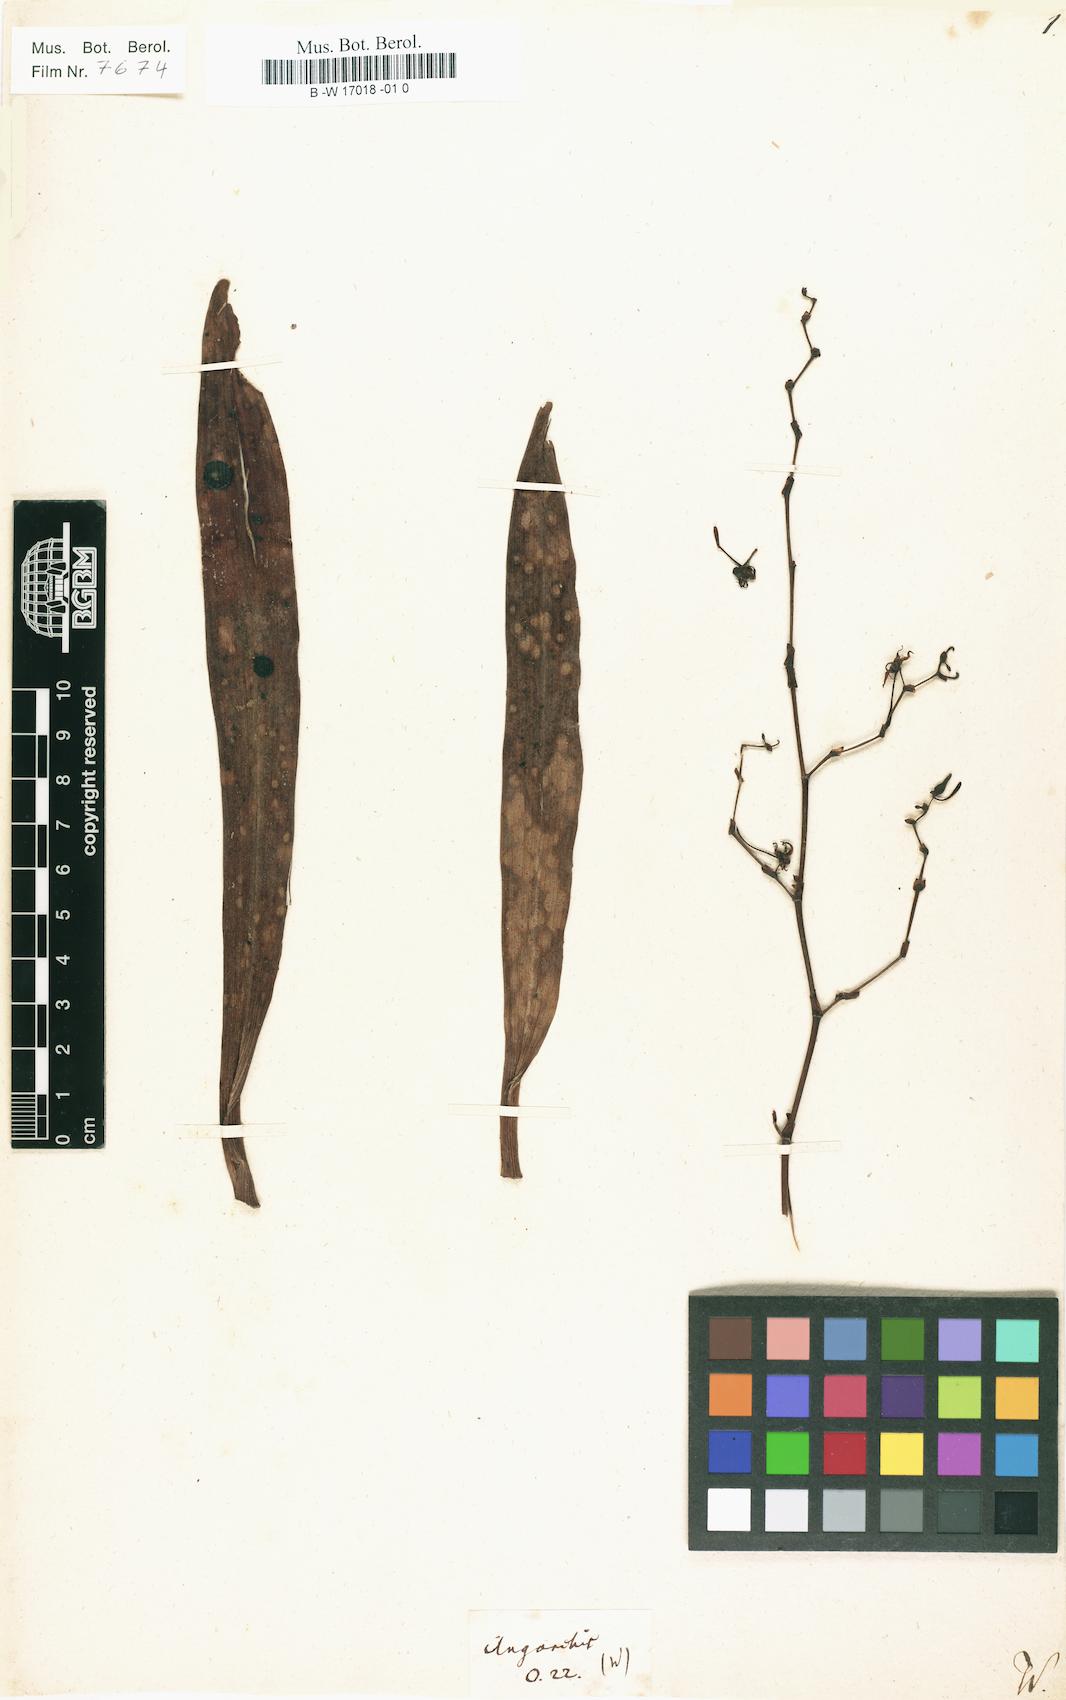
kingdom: Plantae
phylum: Tracheophyta
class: Liliopsida
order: Asparagales
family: Orchidaceae
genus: Angorchis
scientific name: Angorchis
